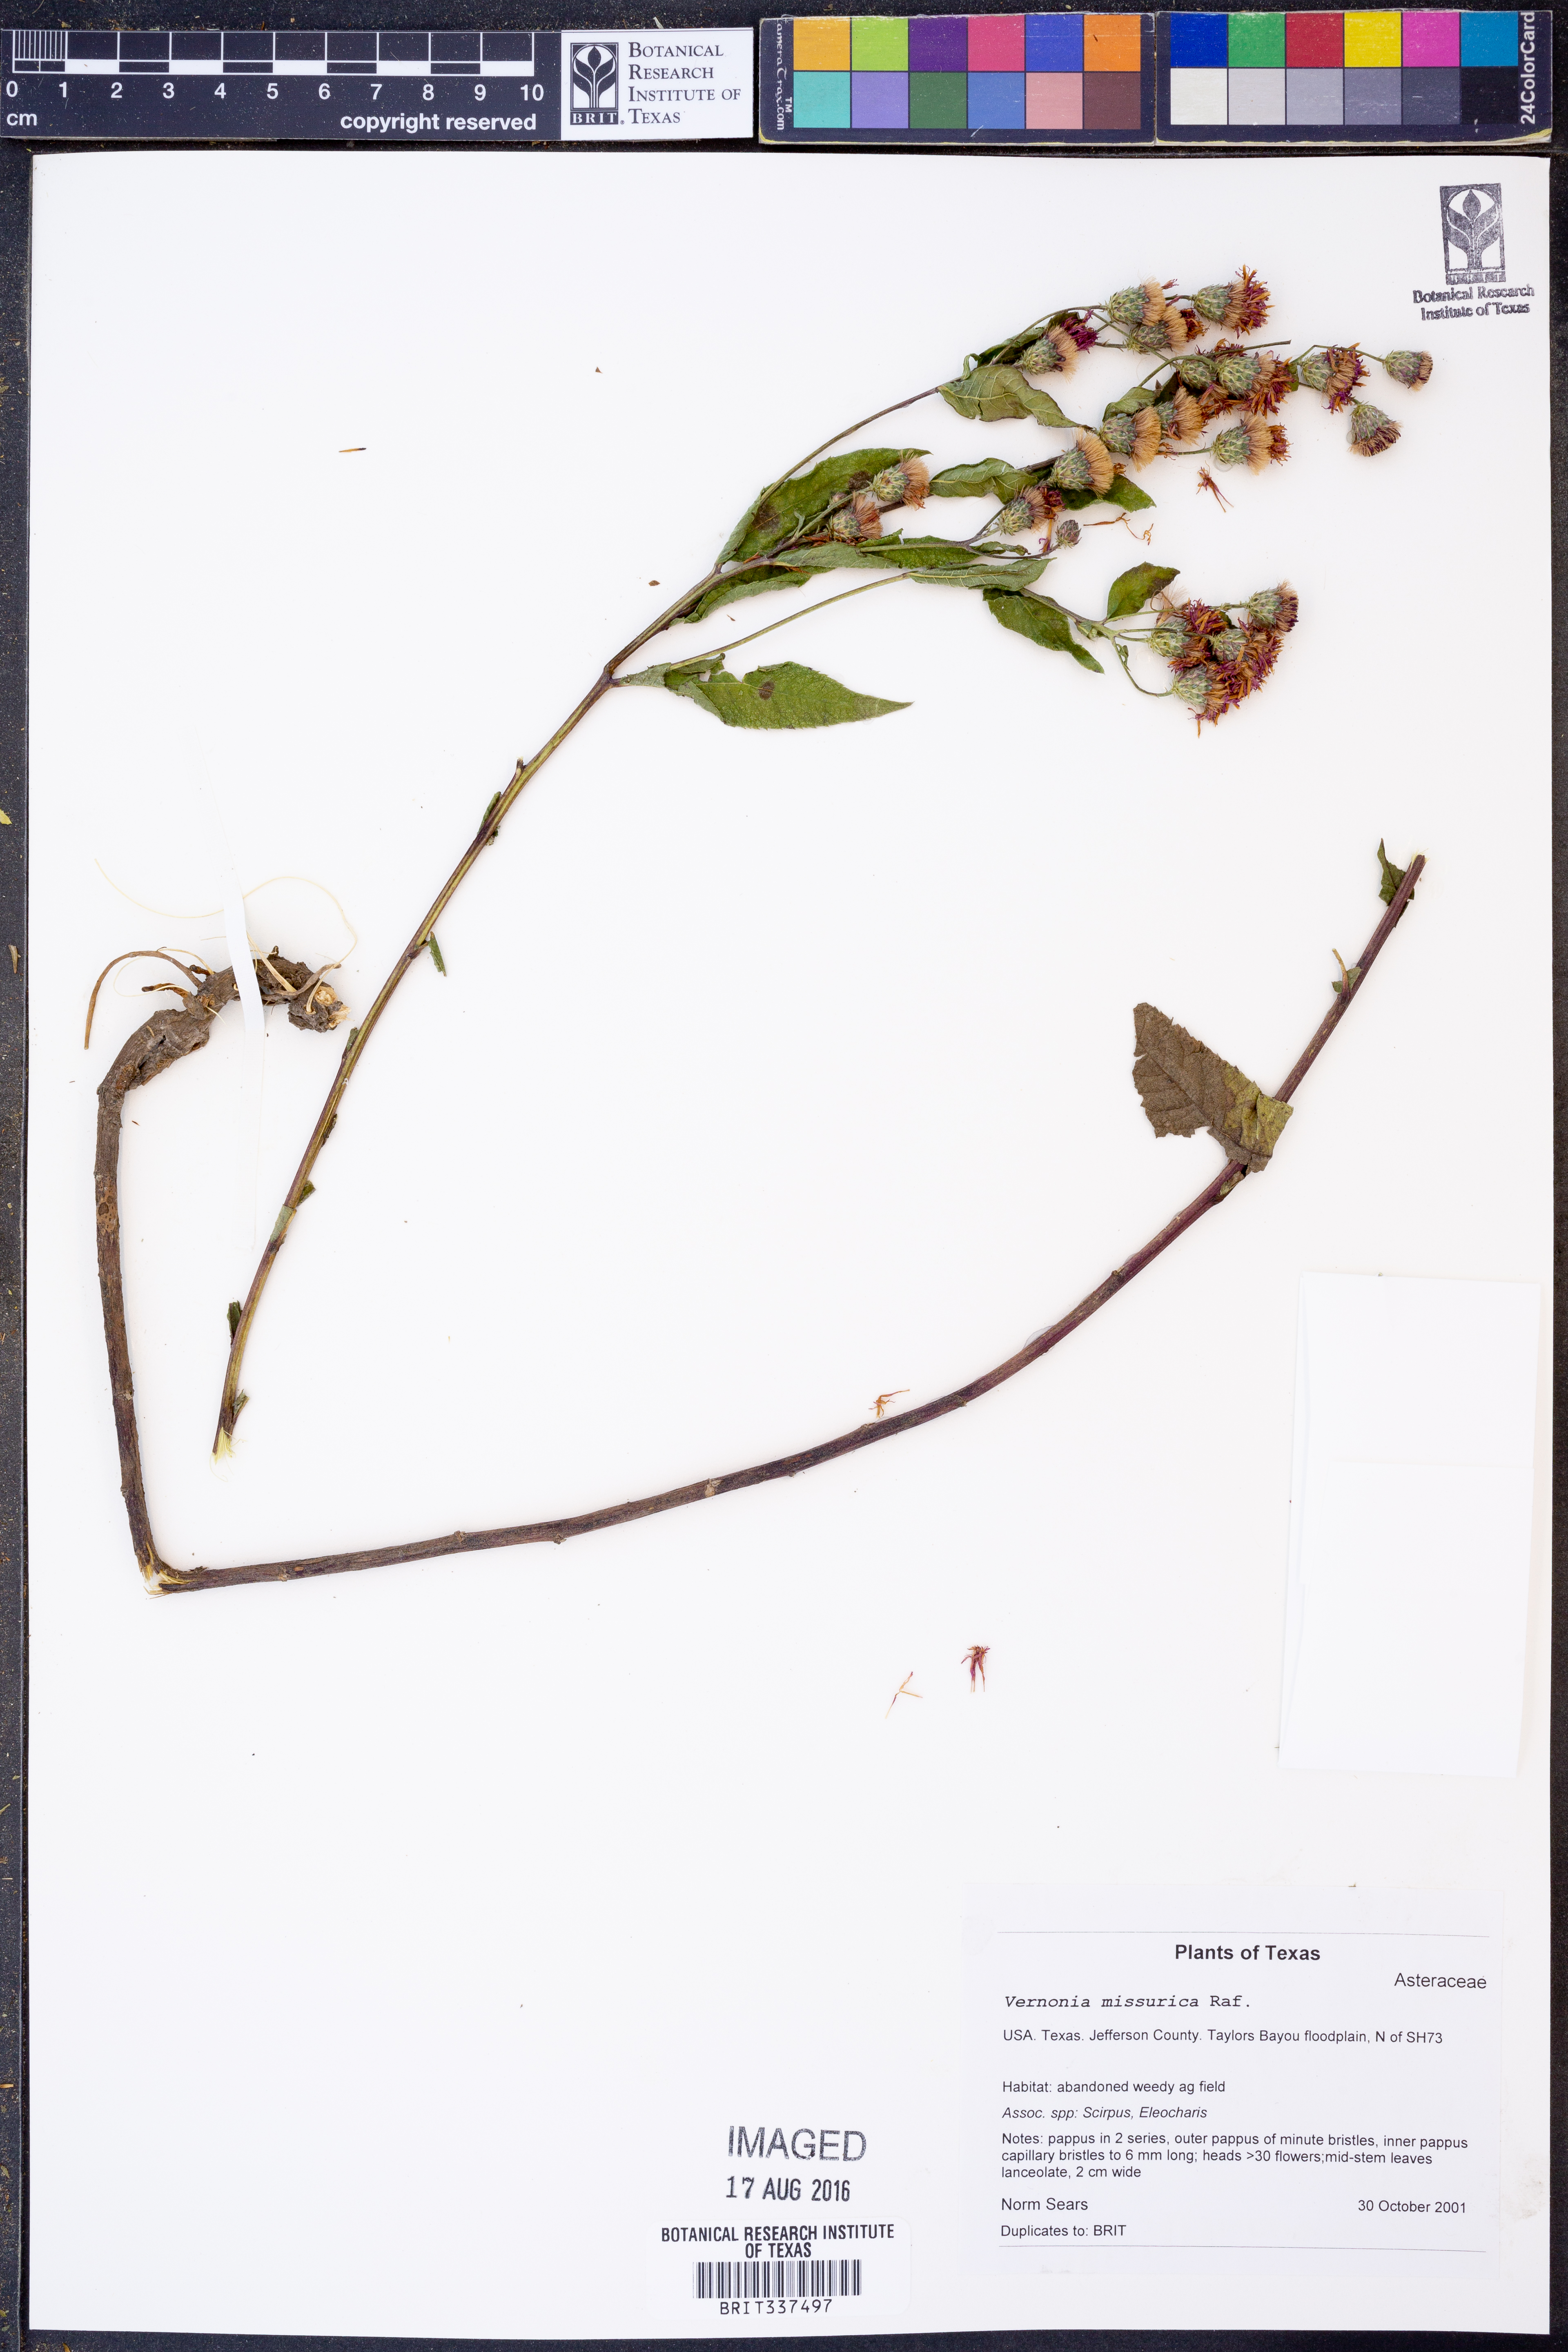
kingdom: Plantae
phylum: Tracheophyta
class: Magnoliopsida
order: Asterales
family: Asteraceae
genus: Vernonia
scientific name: Vernonia missurica
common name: Missouri ironweed
